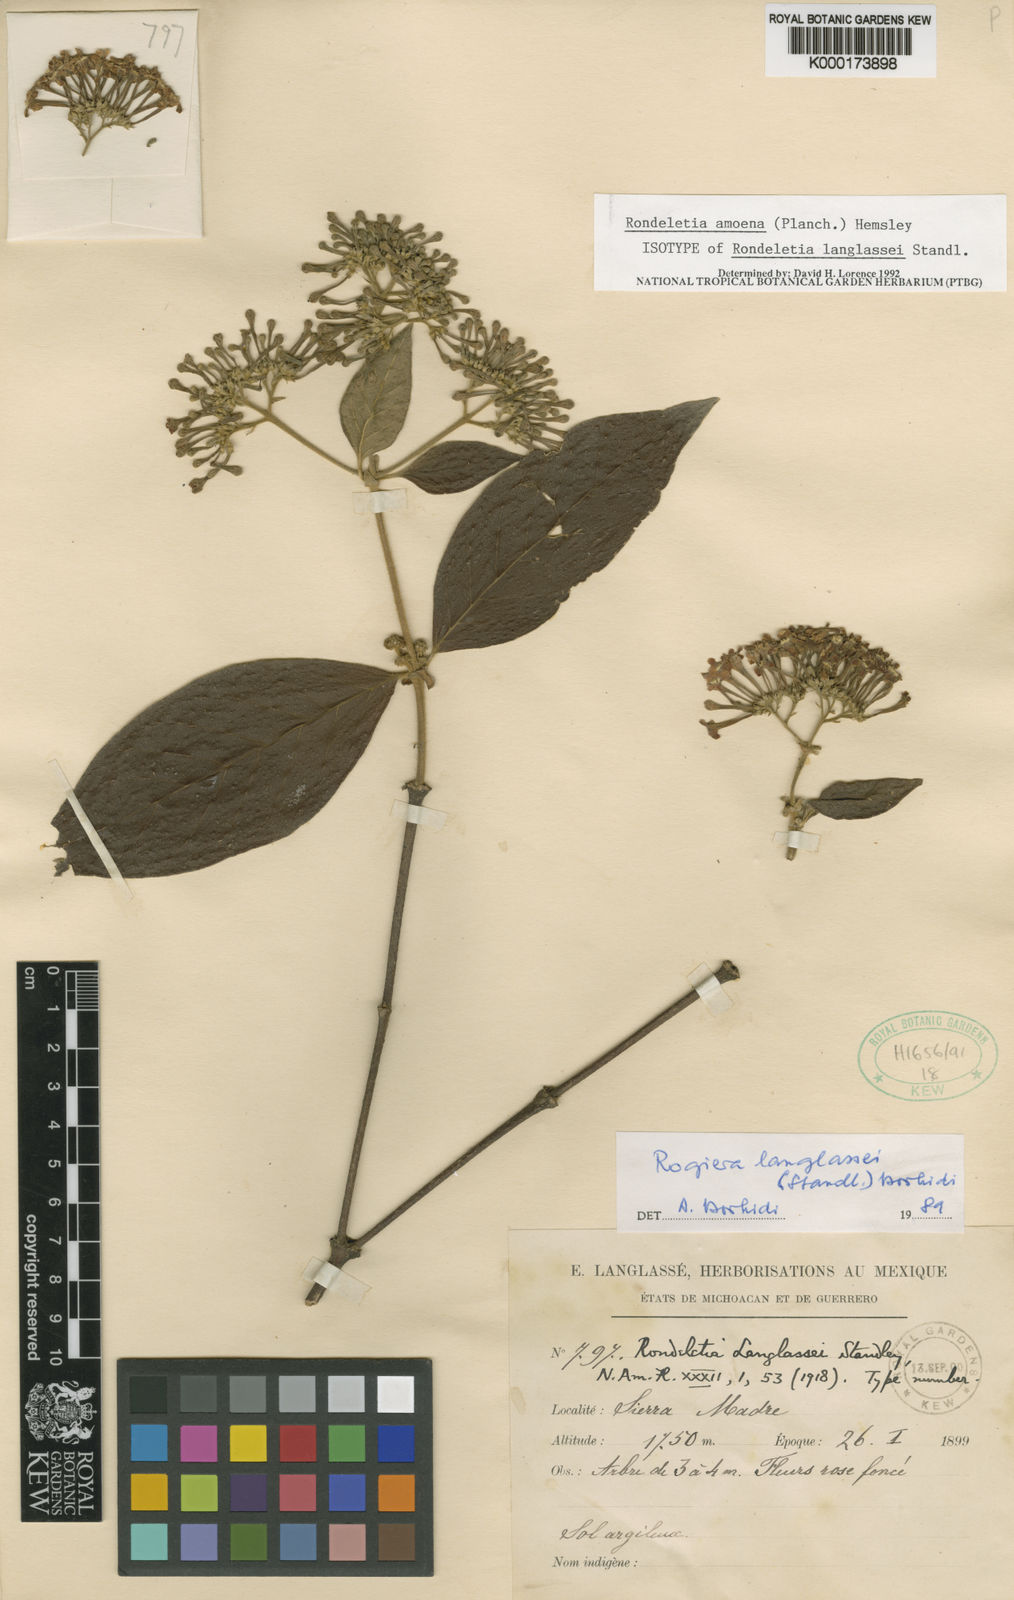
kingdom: Plantae
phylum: Tracheophyta
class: Magnoliopsida
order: Gentianales
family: Rubiaceae
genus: Rogiera
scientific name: Rogiera amoena
